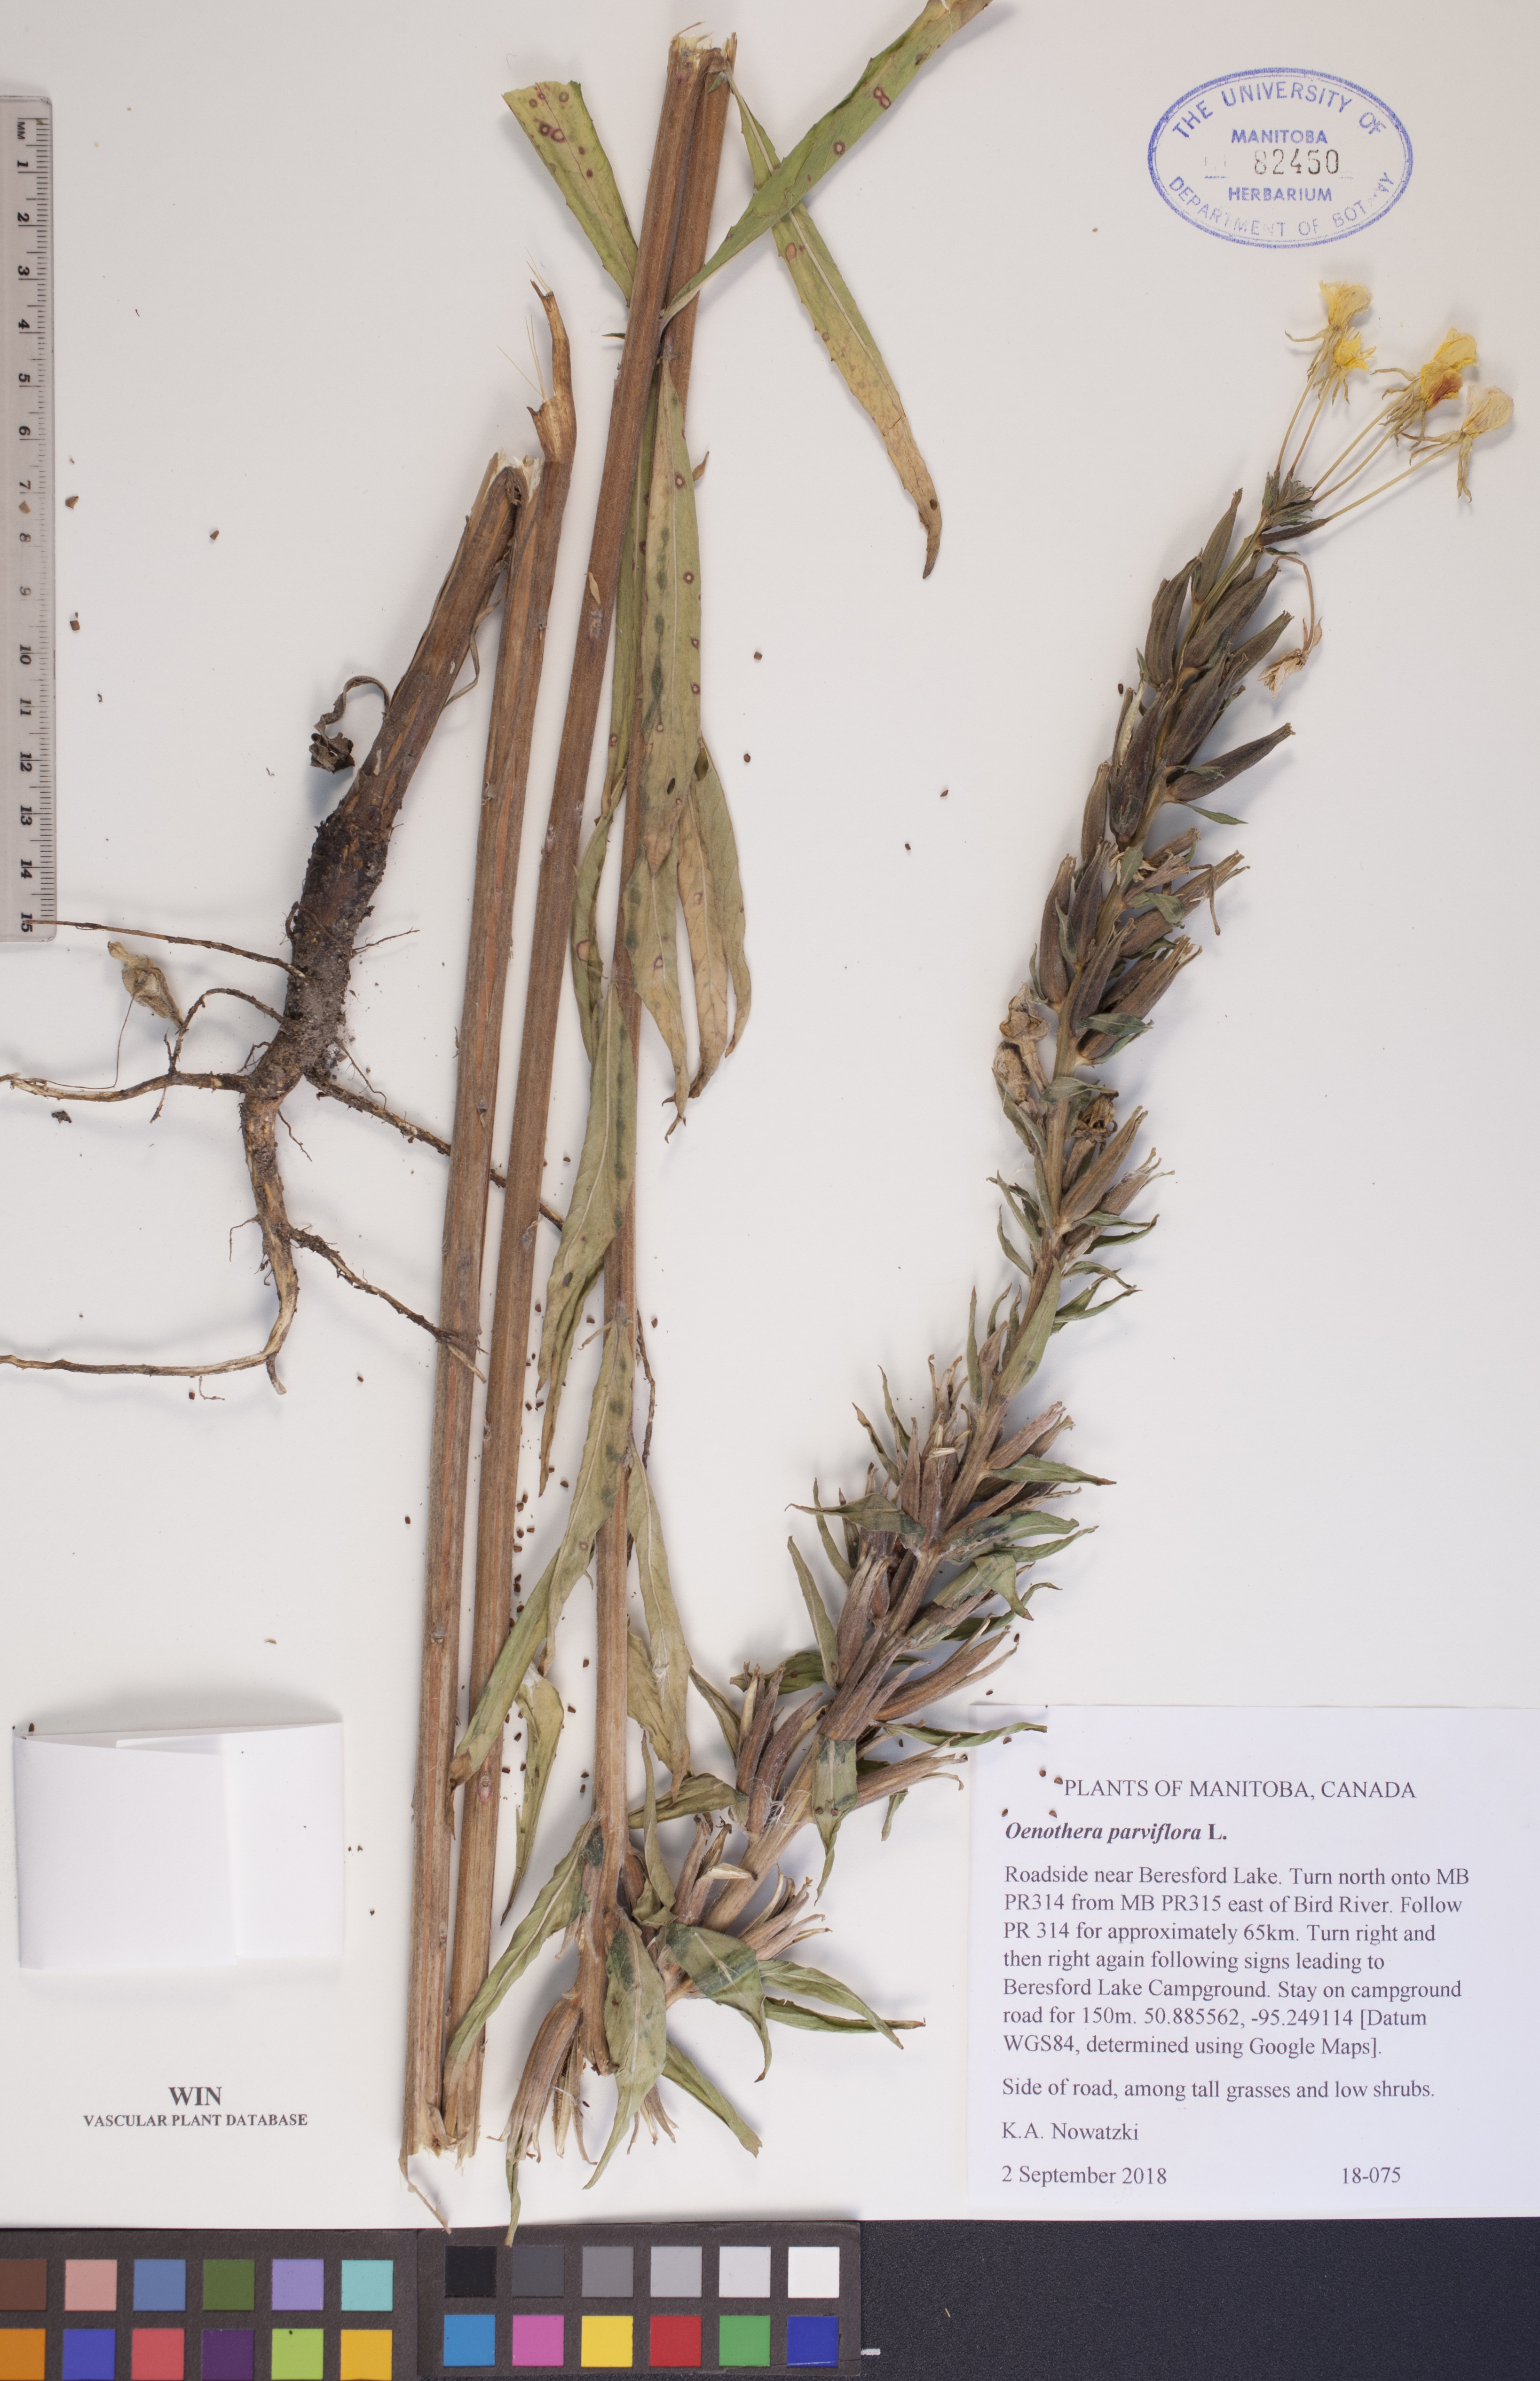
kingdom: Plantae
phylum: Tracheophyta
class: Magnoliopsida
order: Myrtales
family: Onagraceae
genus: Oenothera
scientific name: Oenothera parviflora
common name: Least evening-primrose
